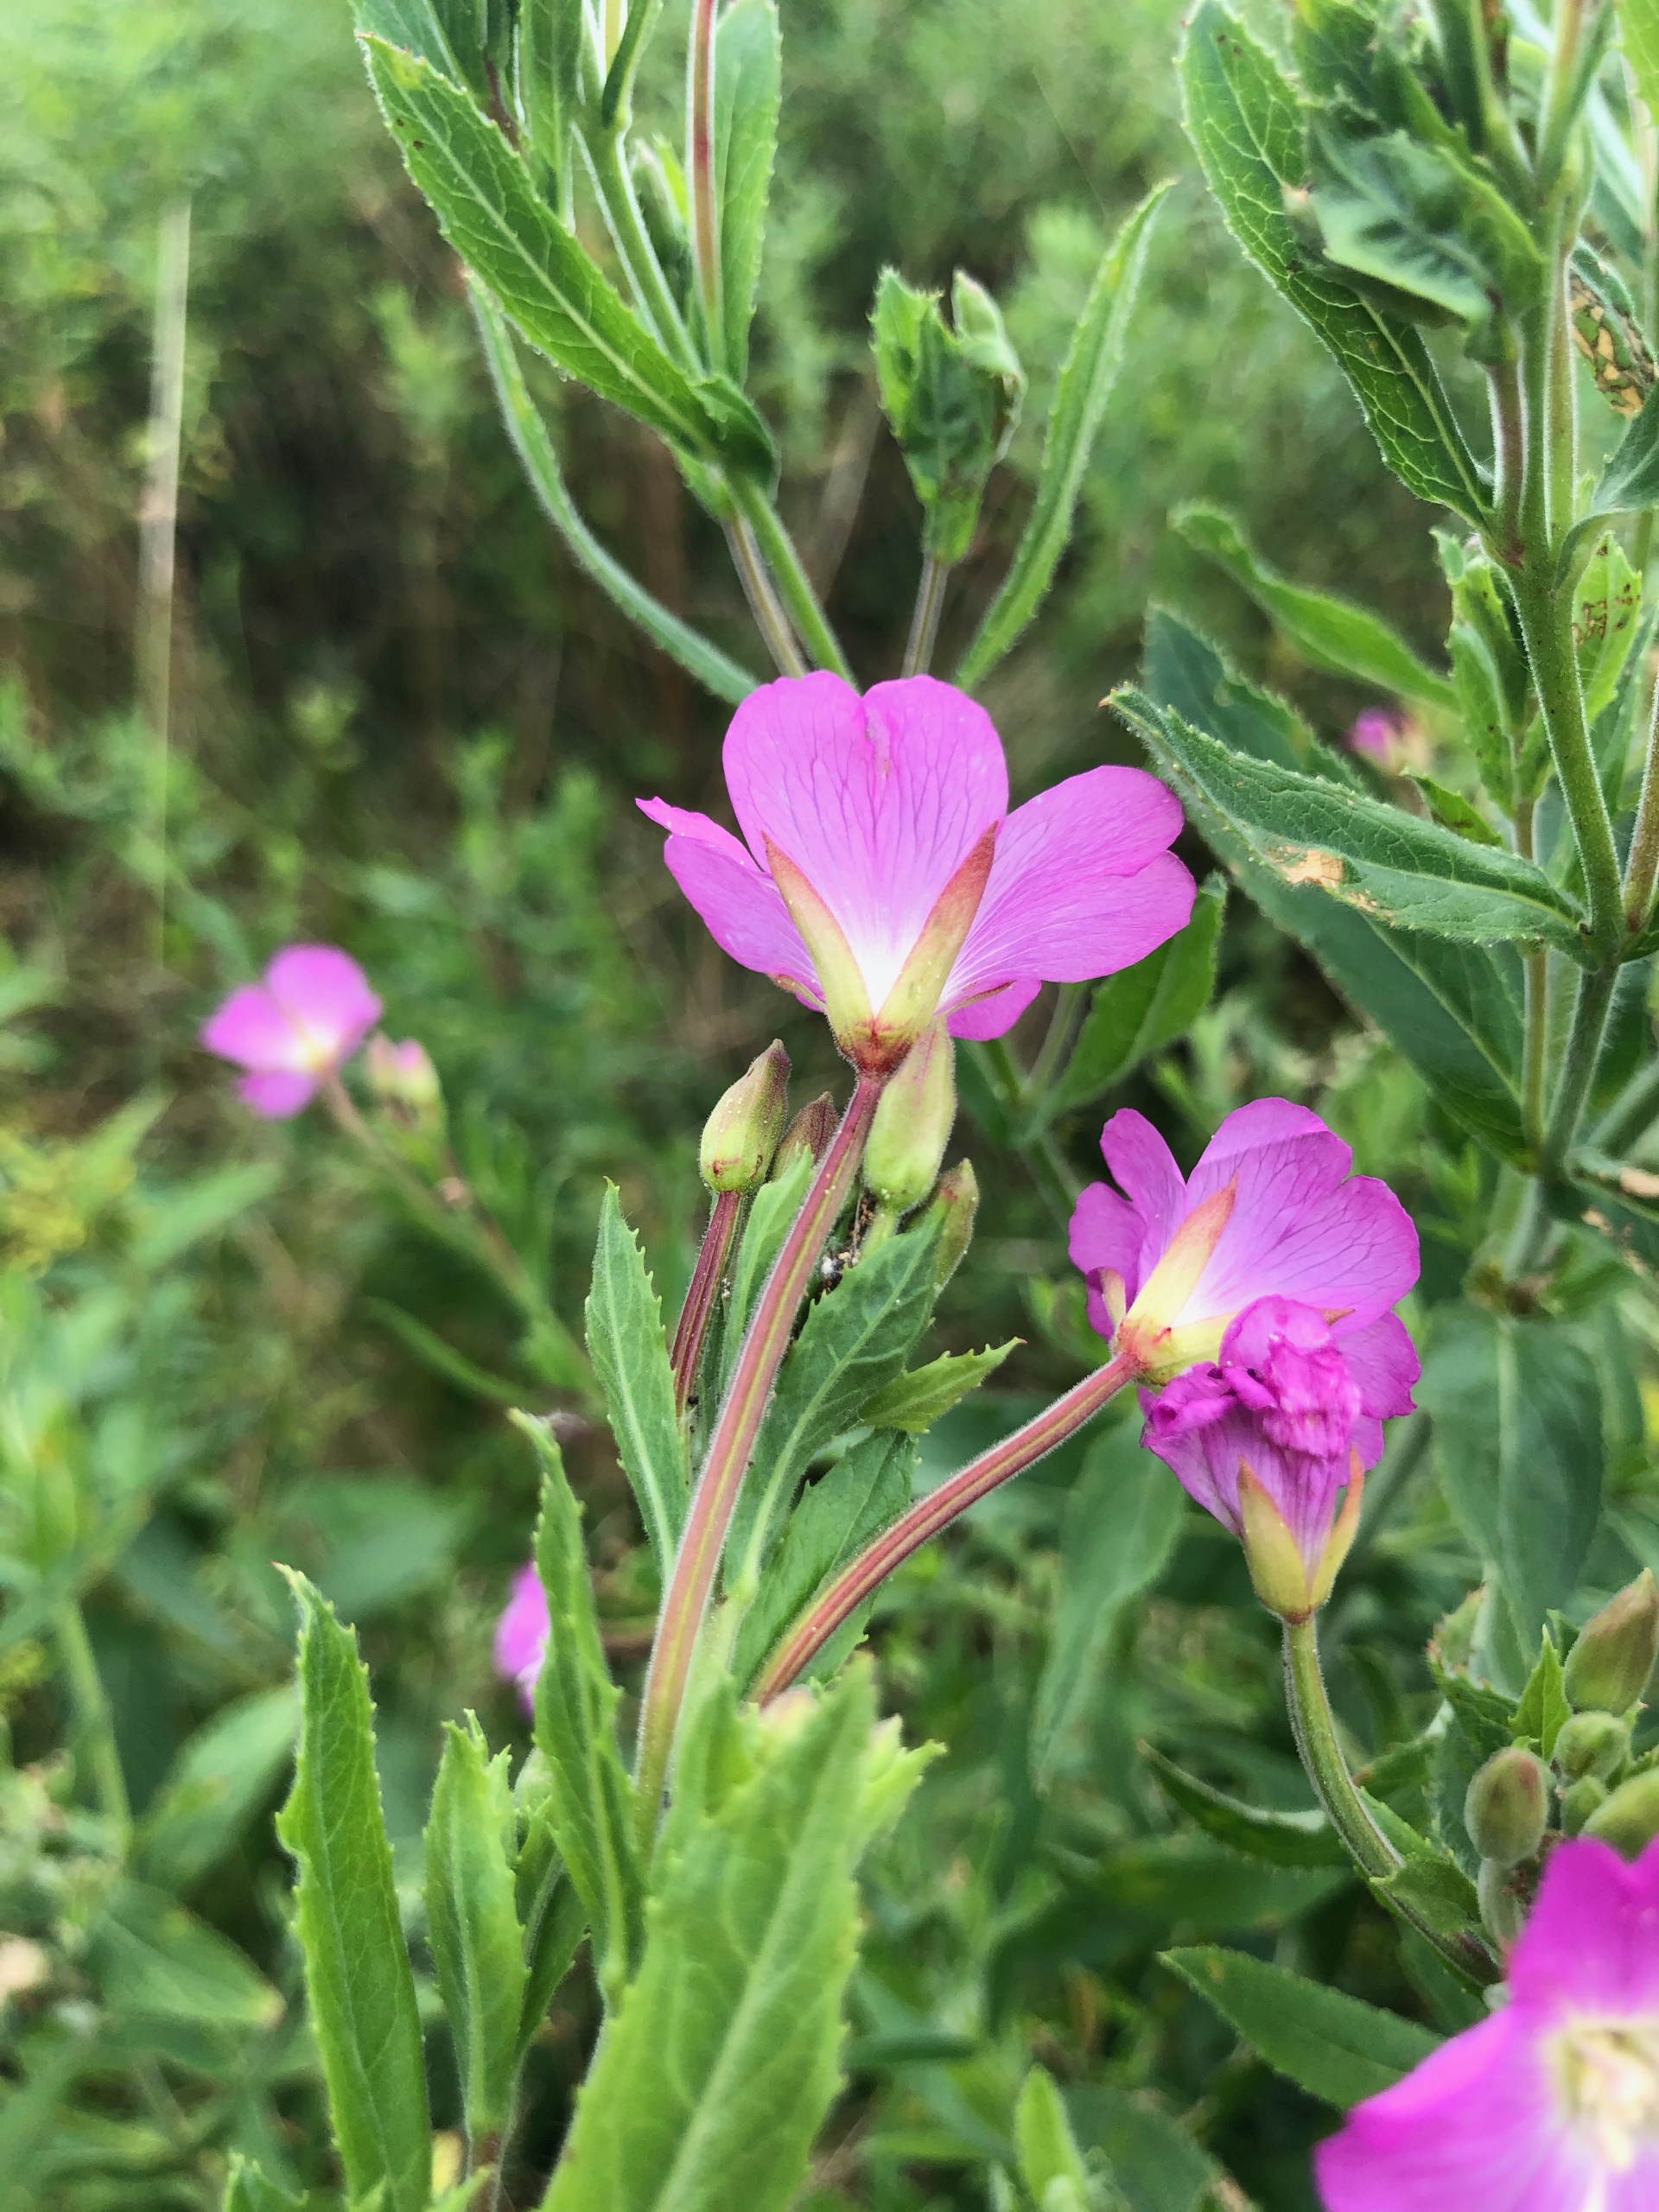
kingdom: Plantae
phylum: Tracheophyta
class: Magnoliopsida
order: Myrtales
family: Onagraceae
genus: Epilobium
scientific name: Epilobium hirsutum
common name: Lådden dueurt
